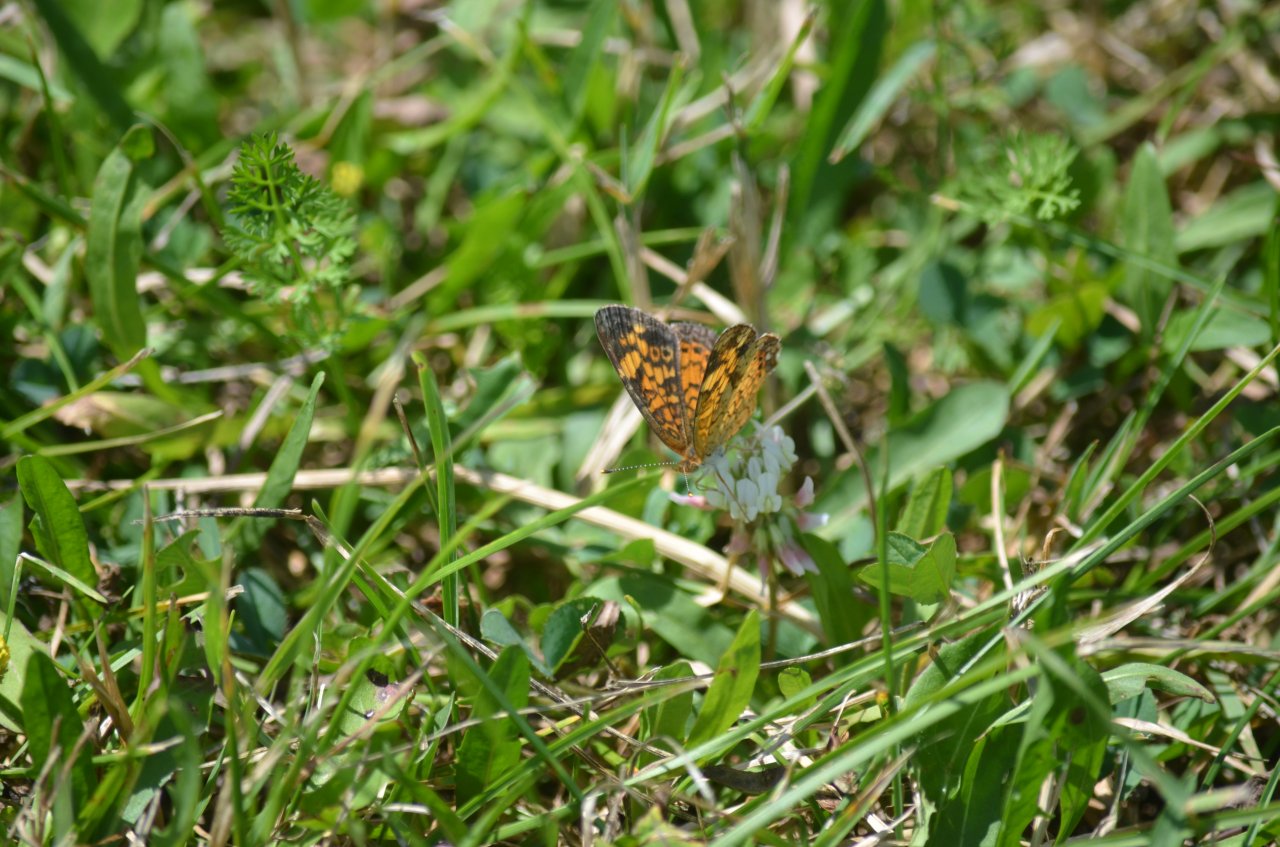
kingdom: Animalia
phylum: Arthropoda
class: Insecta
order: Lepidoptera
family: Nymphalidae
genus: Phyciodes
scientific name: Phyciodes tharos
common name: Northern Crescent
